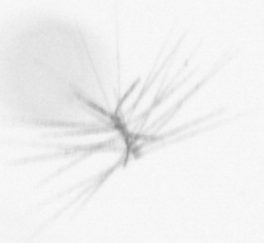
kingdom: Chromista
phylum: Ochrophyta
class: Bacillariophyceae
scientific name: Bacillariophyceae
